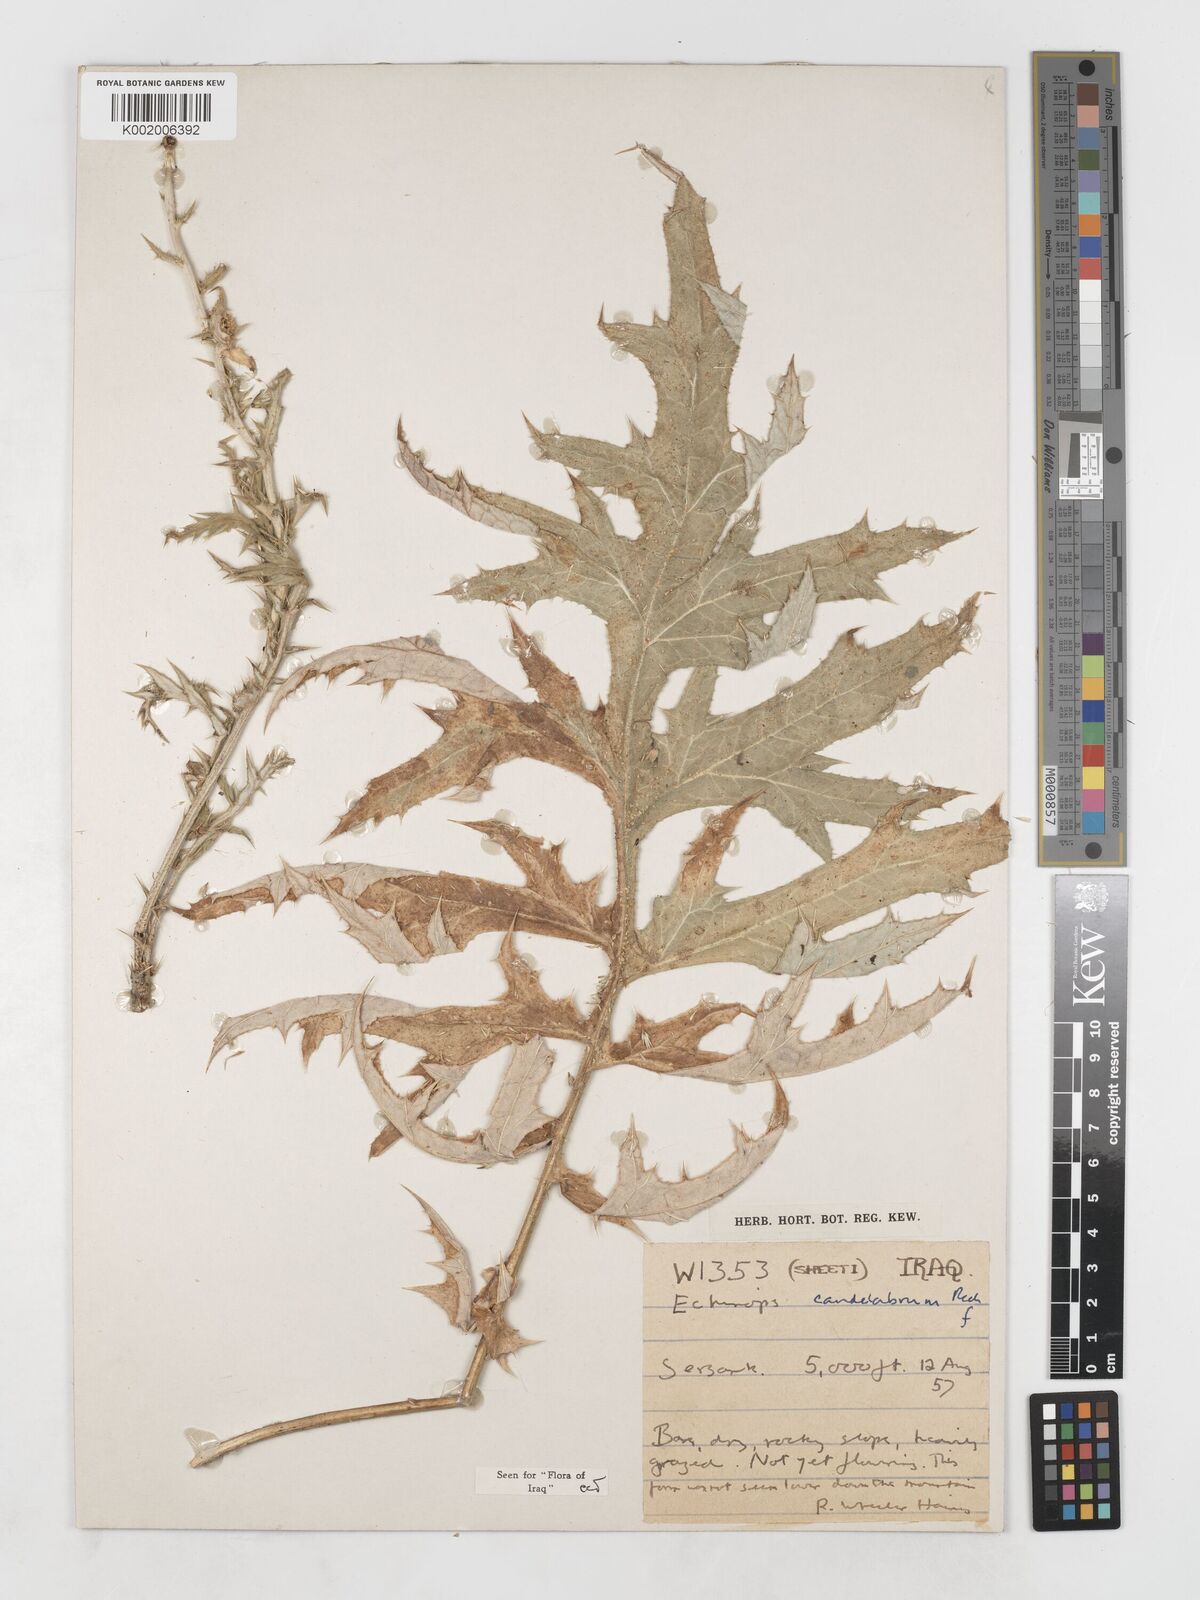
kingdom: Plantae
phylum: Tracheophyta
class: Magnoliopsida
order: Asterales
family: Asteraceae
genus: Echinops
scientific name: Echinops candelabrum
